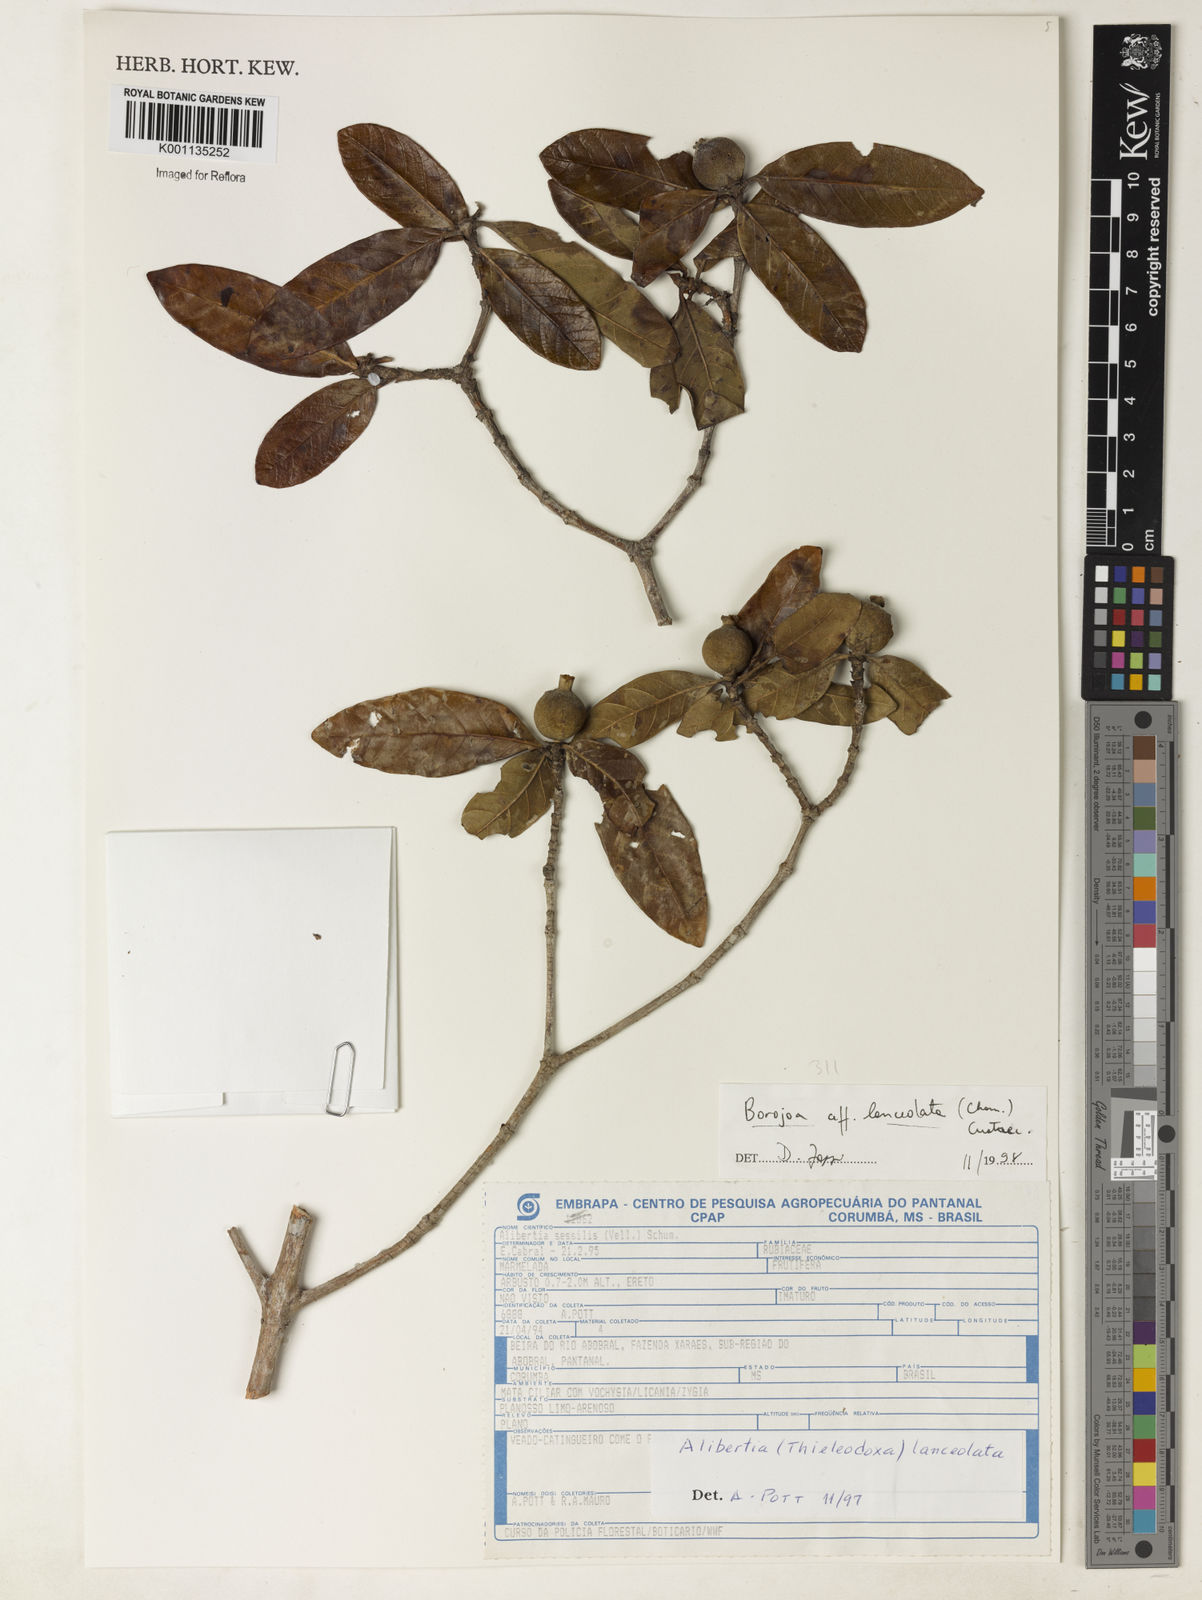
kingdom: Plantae
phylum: Tracheophyta
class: Magnoliopsida
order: Gentianales
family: Rubiaceae
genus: Alibertia
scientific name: Alibertia edulis
